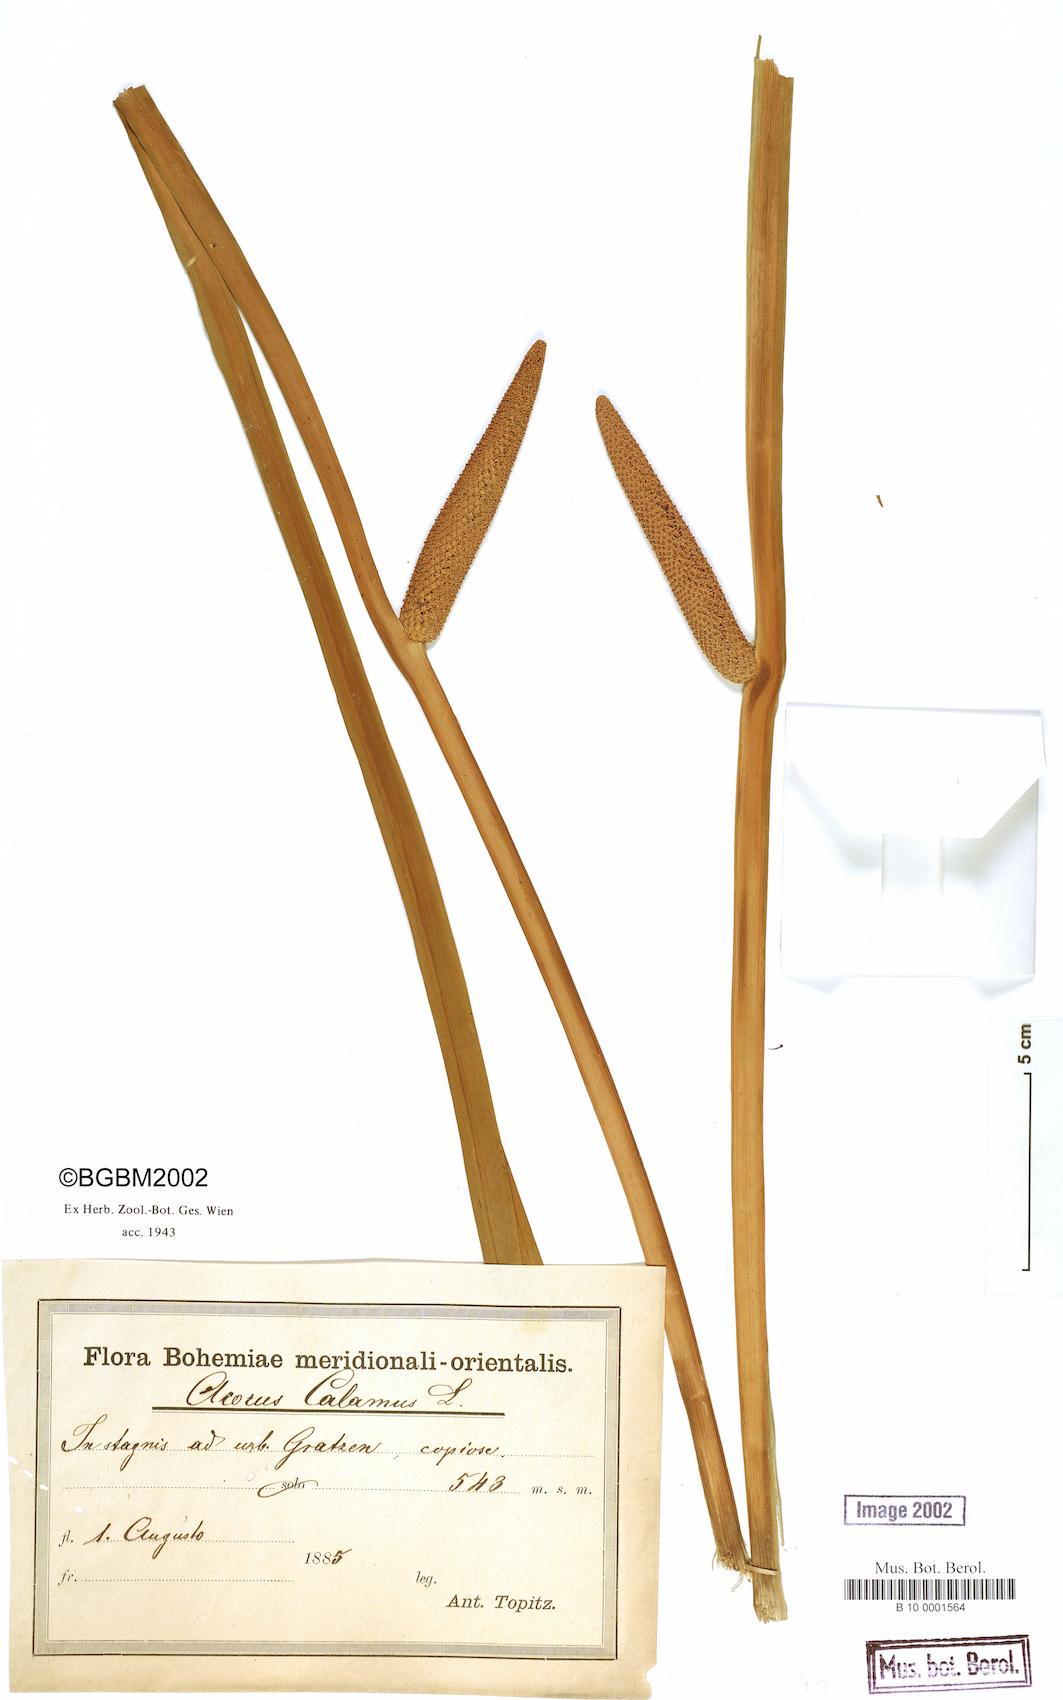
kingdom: Plantae
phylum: Tracheophyta
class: Liliopsida
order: Acorales
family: Acoraceae
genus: Acorus
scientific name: Acorus calamus
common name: Sweet-flag
